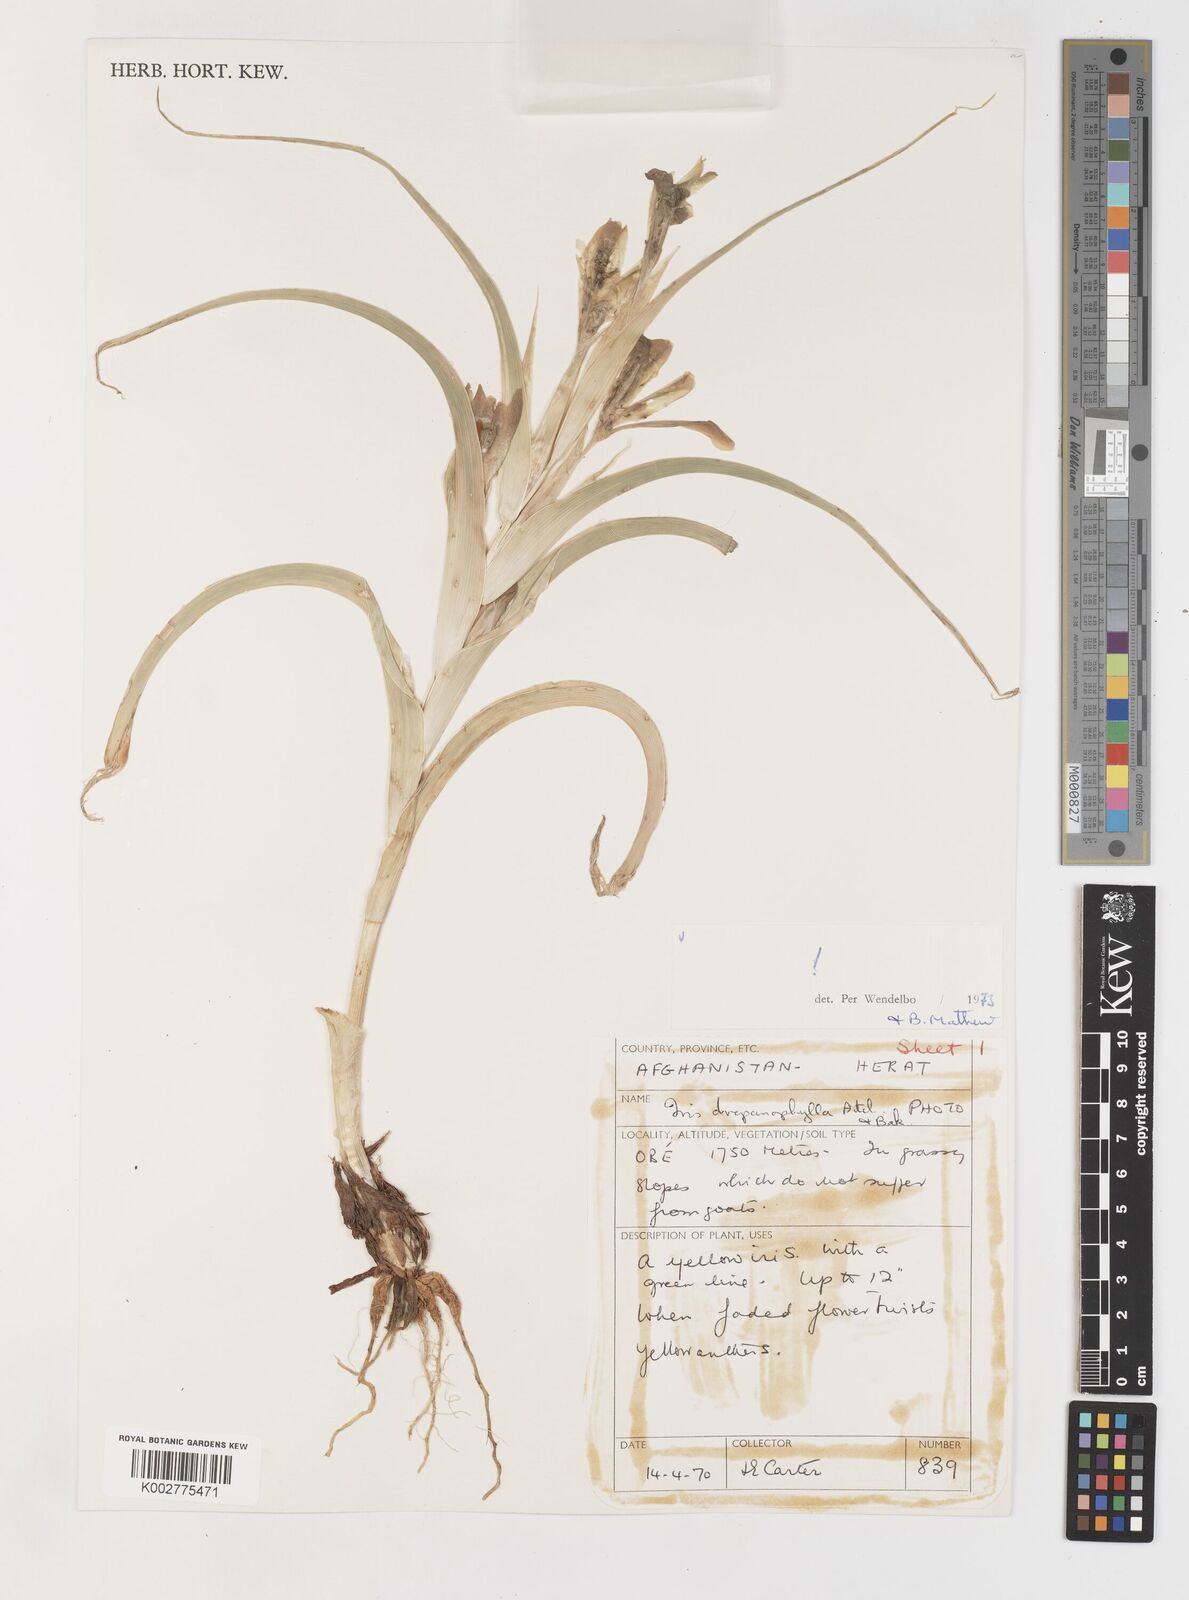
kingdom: Plantae
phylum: Tracheophyta
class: Liliopsida
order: Asparagales
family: Iridaceae
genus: Iris
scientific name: Iris drepanophylla
